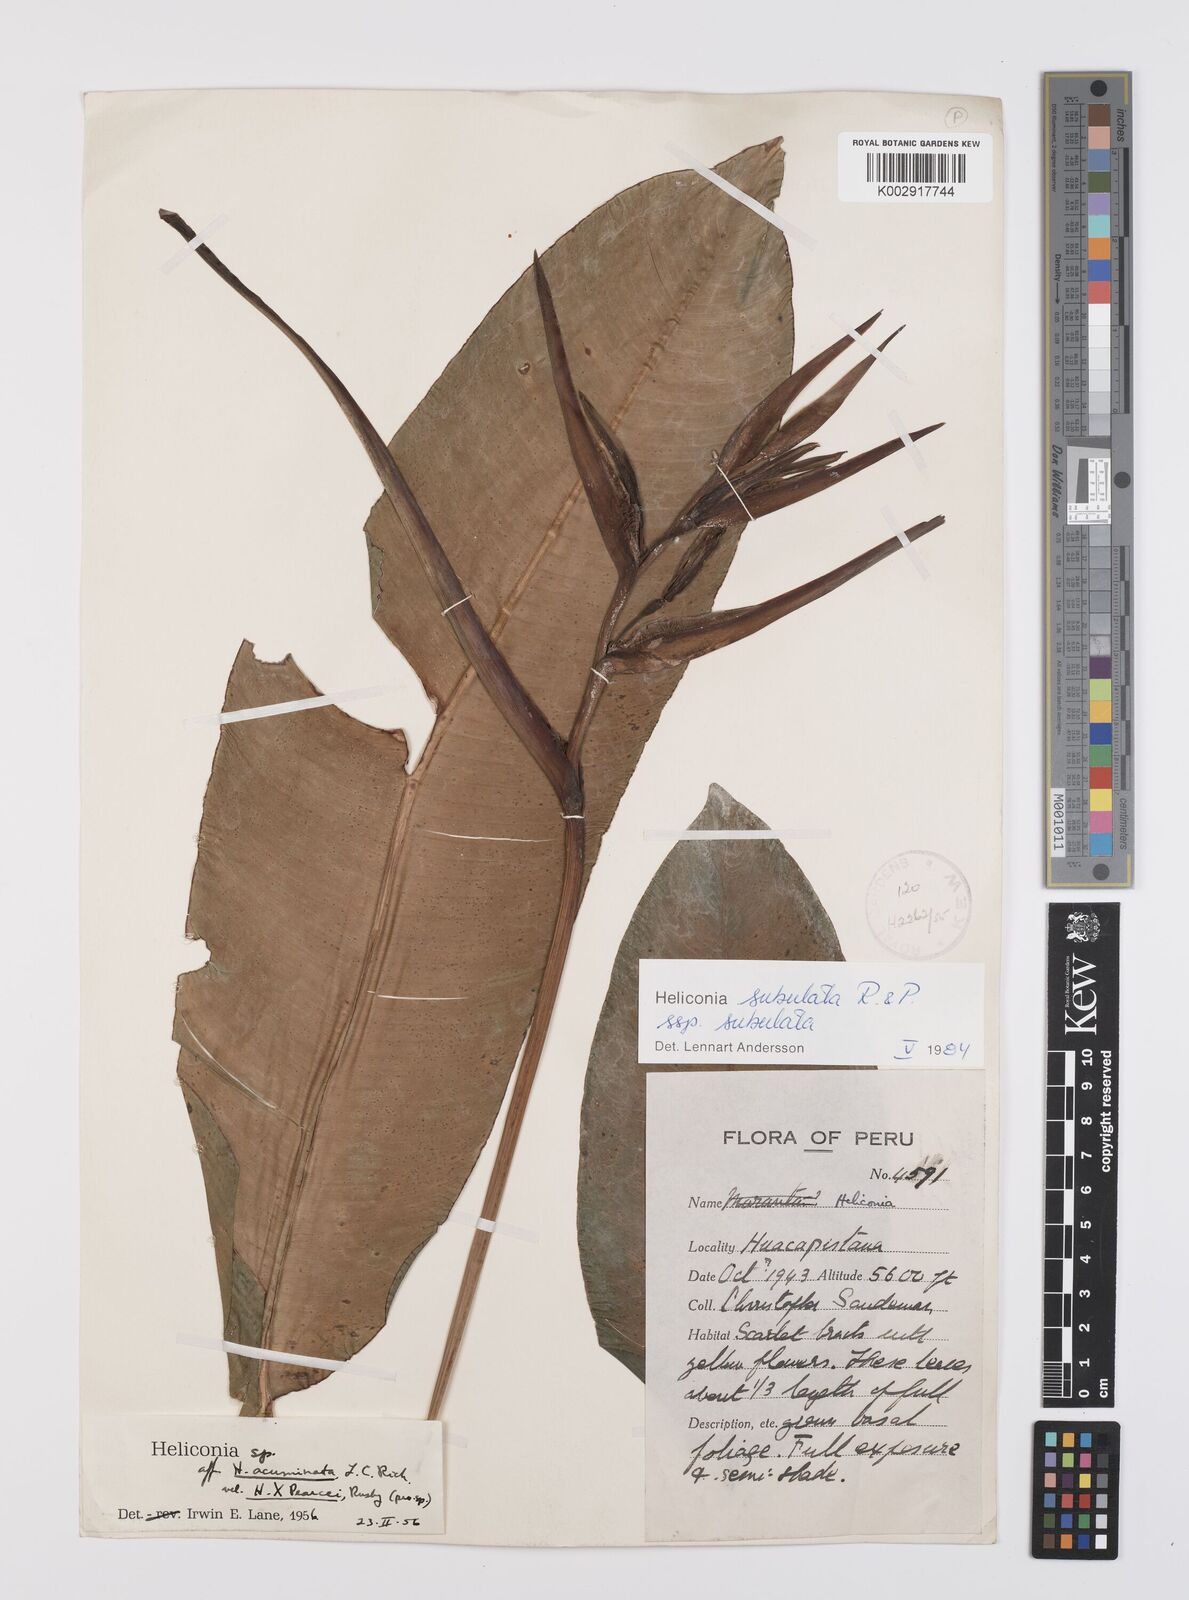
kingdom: Plantae
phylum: Tracheophyta
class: Liliopsida
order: Zingiberales
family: Heliconiaceae
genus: Heliconia
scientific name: Heliconia subulata
